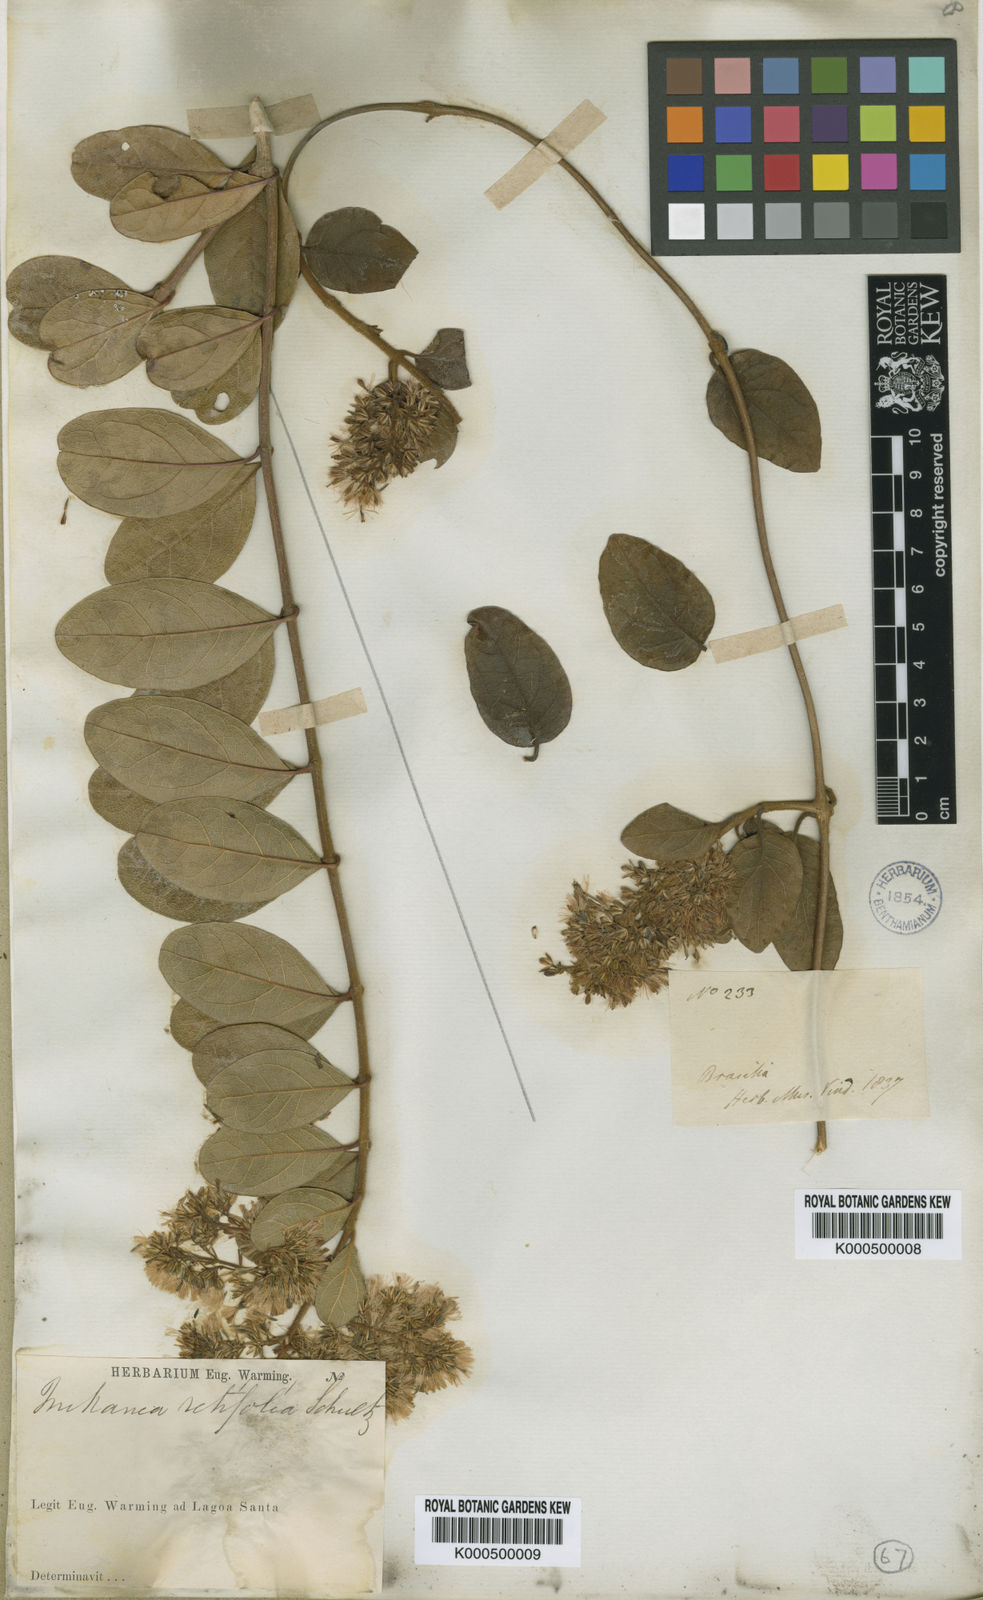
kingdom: Plantae
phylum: Tracheophyta
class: Magnoliopsida
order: Asterales
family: Asteraceae
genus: Mikania
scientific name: Mikania retifolia
